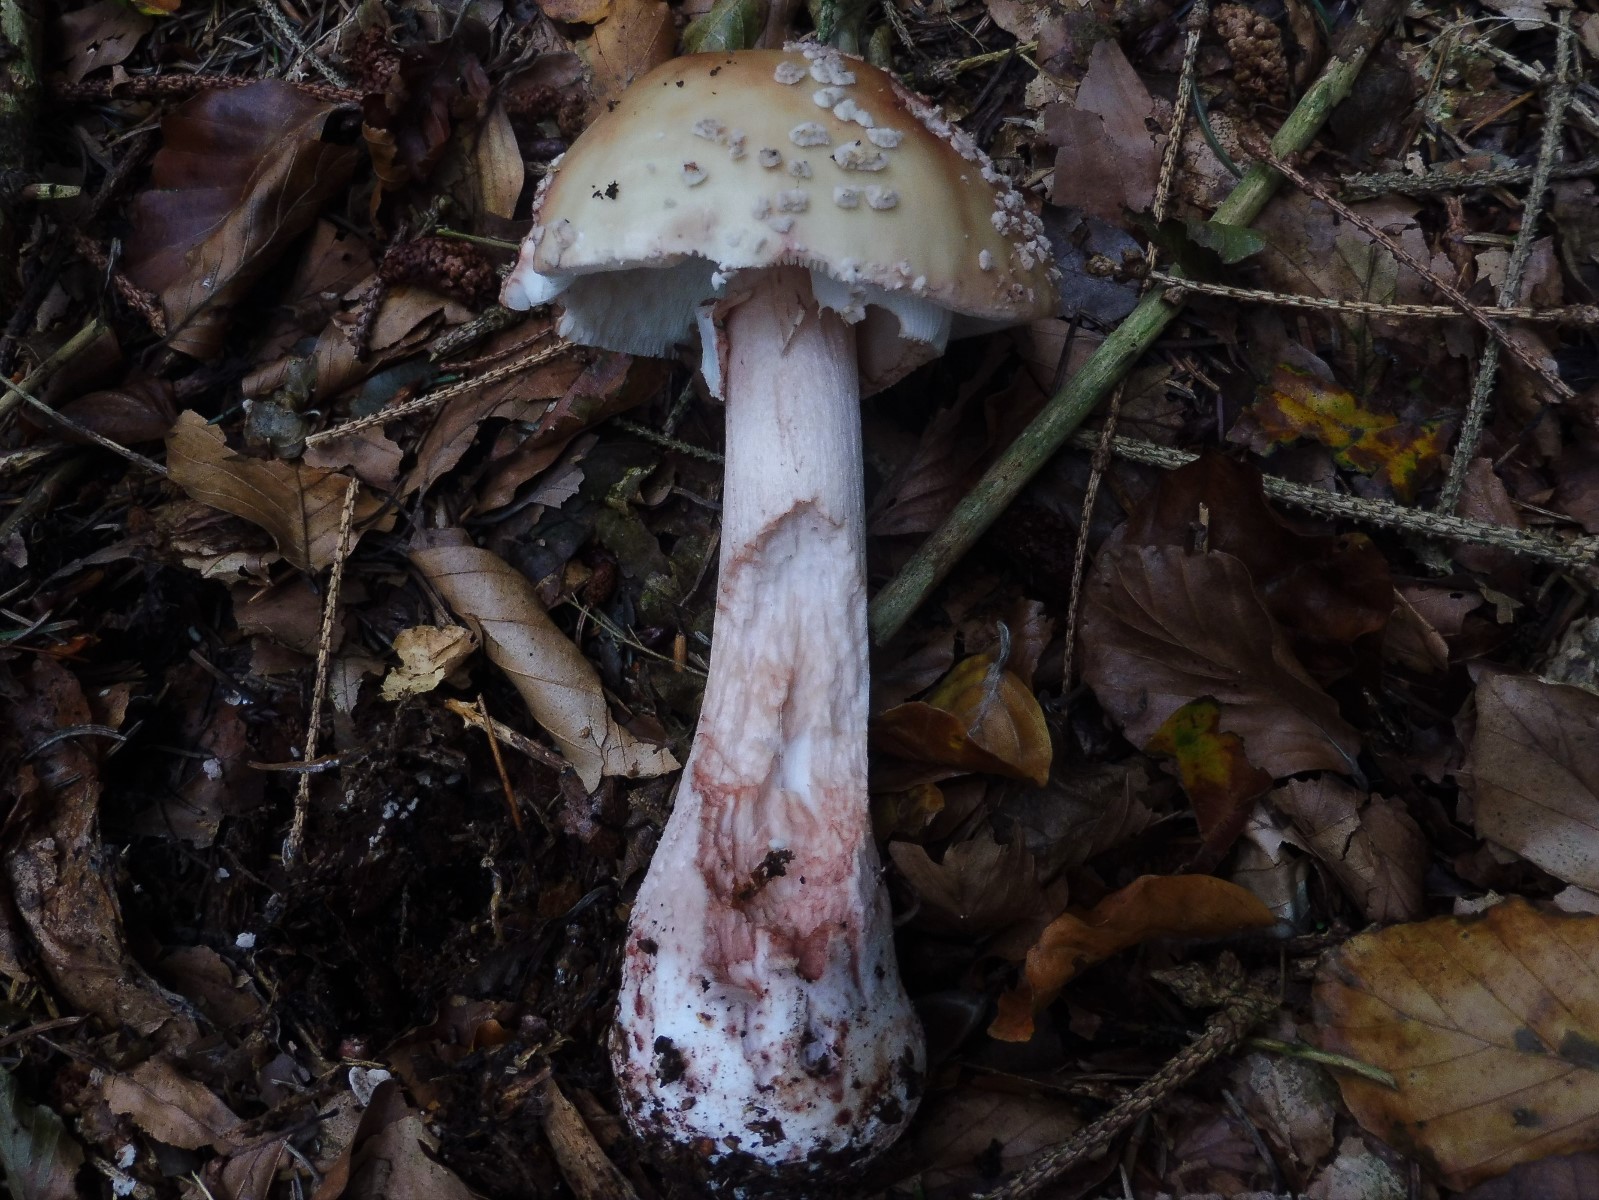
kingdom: Fungi
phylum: Basidiomycota
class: Agaricomycetes
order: Agaricales
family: Amanitaceae
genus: Amanita
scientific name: Amanita rubescens
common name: rødmende fluesvamp
